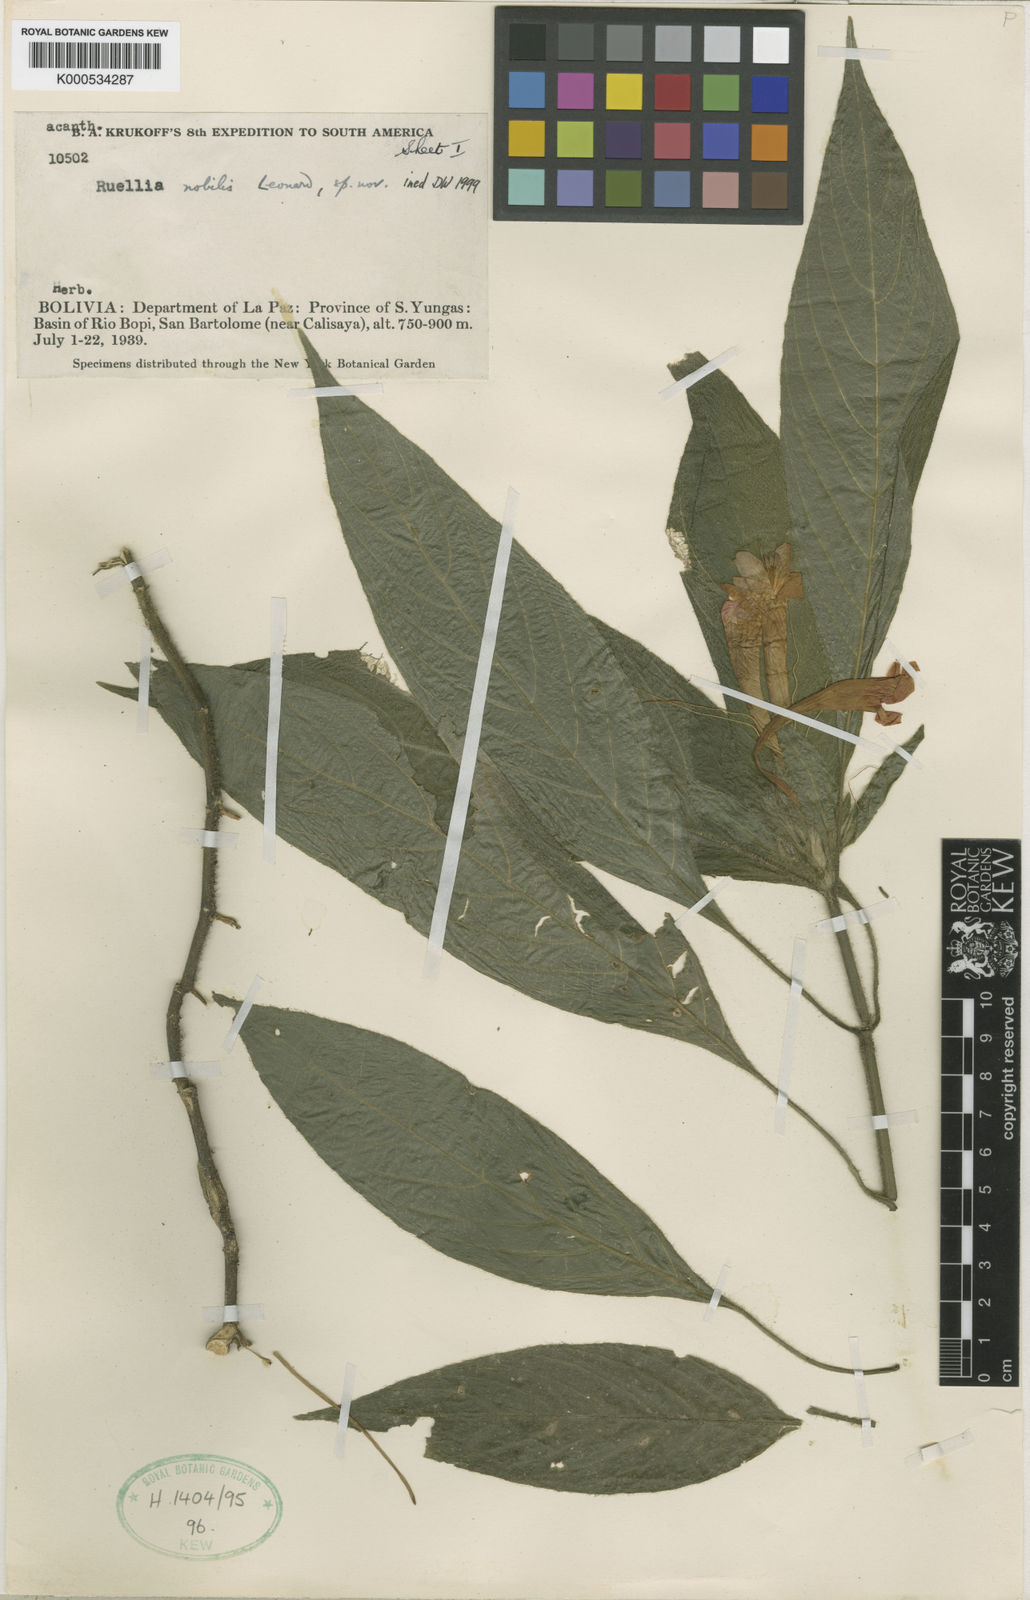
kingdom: Plantae
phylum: Tracheophyta
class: Magnoliopsida
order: Lamiales
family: Acanthaceae
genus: Ruellia
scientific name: Ruellia haenkeana
